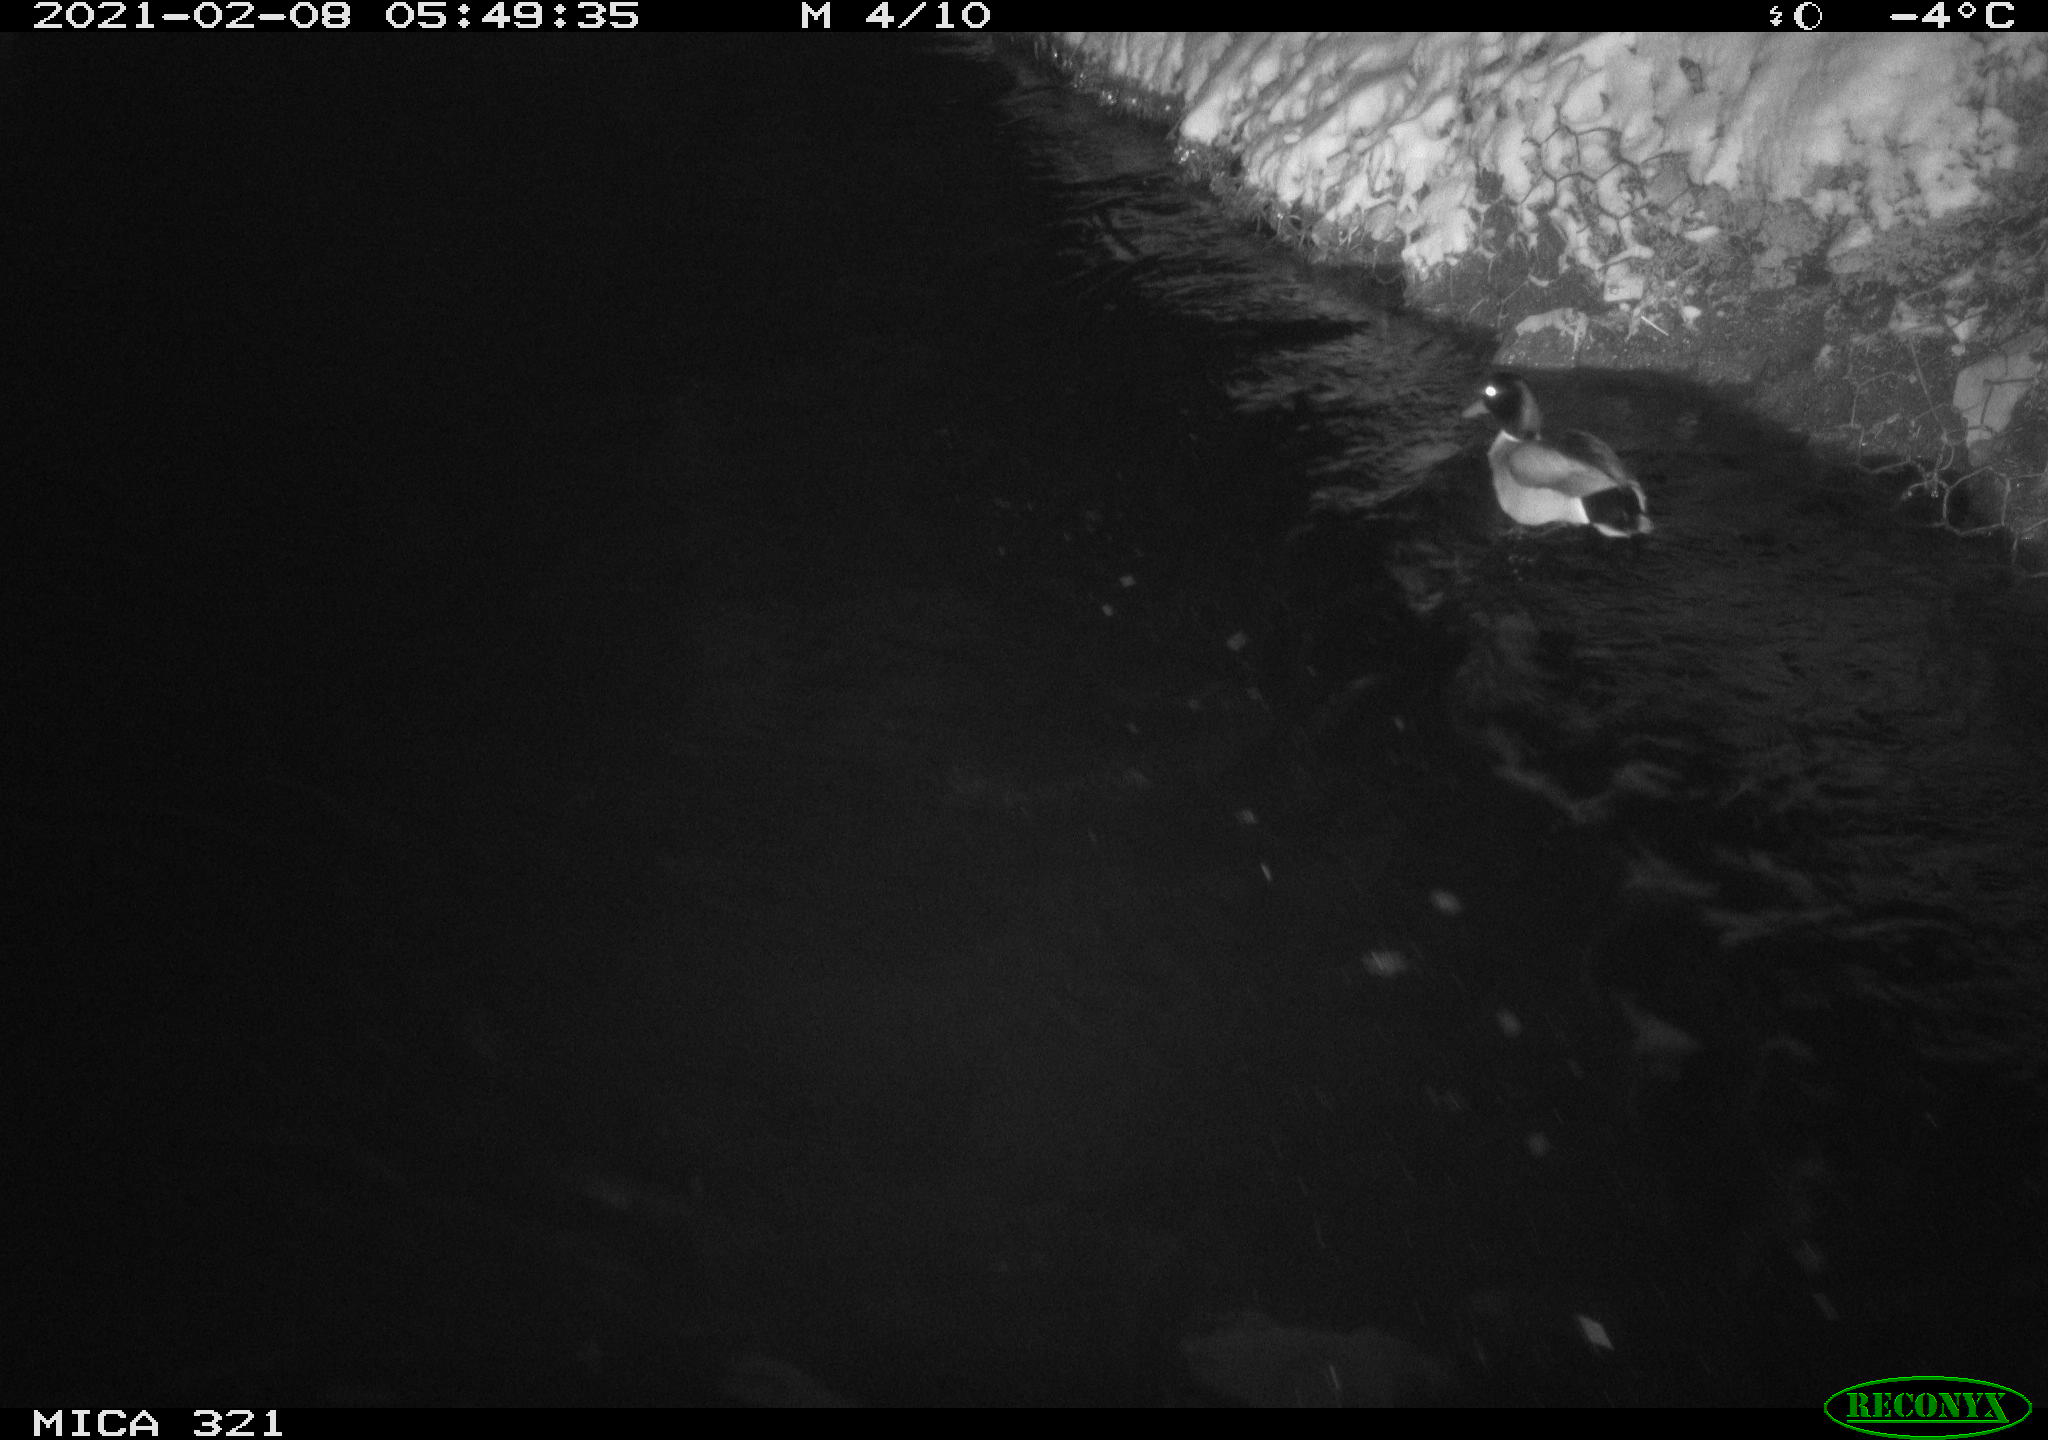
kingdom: Animalia
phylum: Chordata
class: Aves
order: Anseriformes
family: Anatidae
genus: Anas
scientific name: Anas platyrhynchos
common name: Mallard
